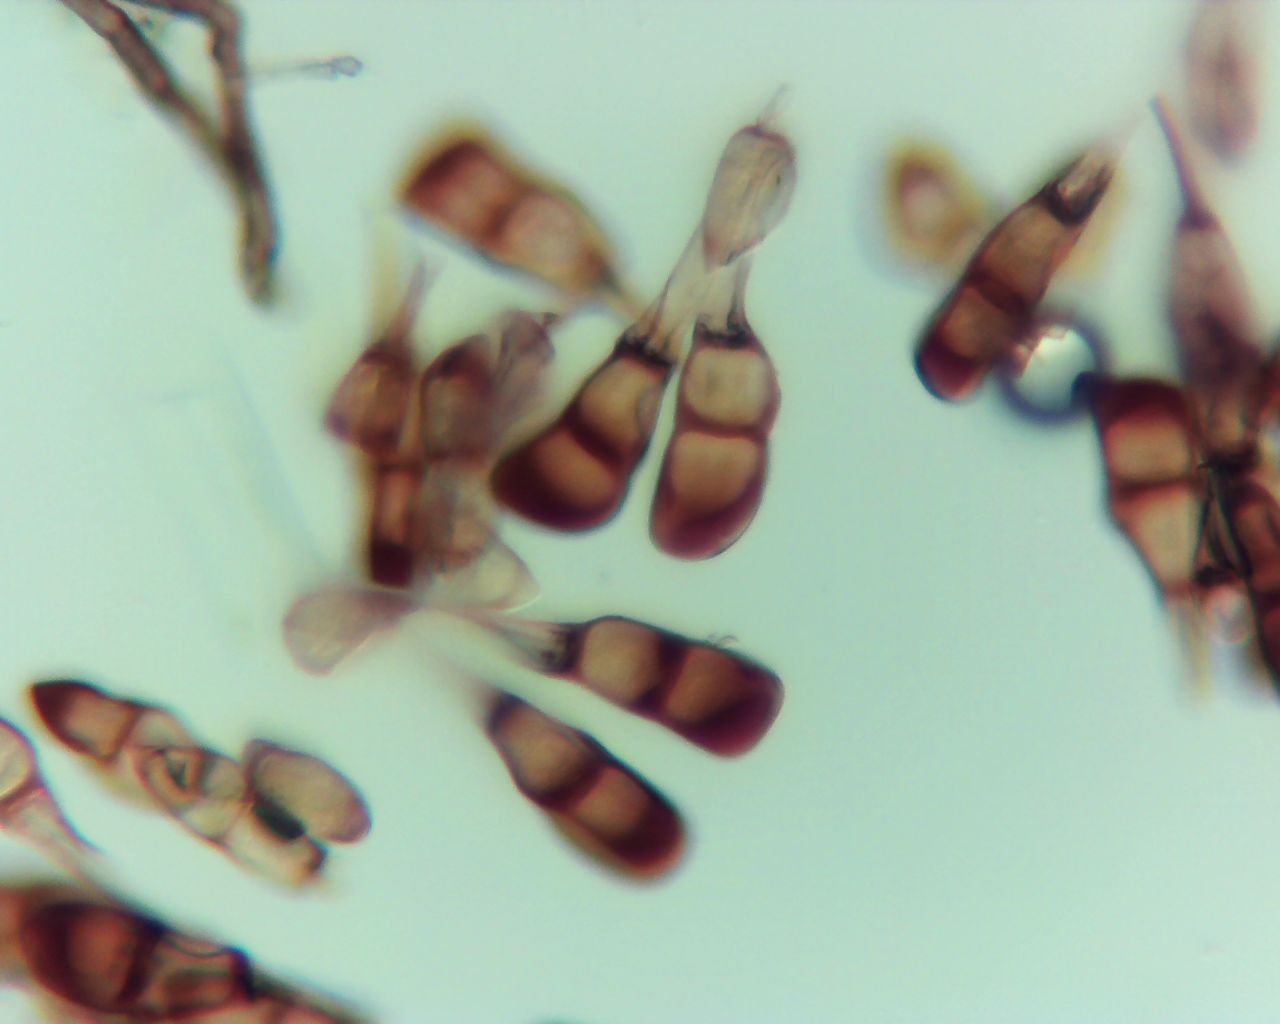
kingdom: Fungi
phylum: Basidiomycota
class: Pucciniomycetes
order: Pucciniales
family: Pucciniaceae
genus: Puccinia
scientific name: Puccinia difformis
